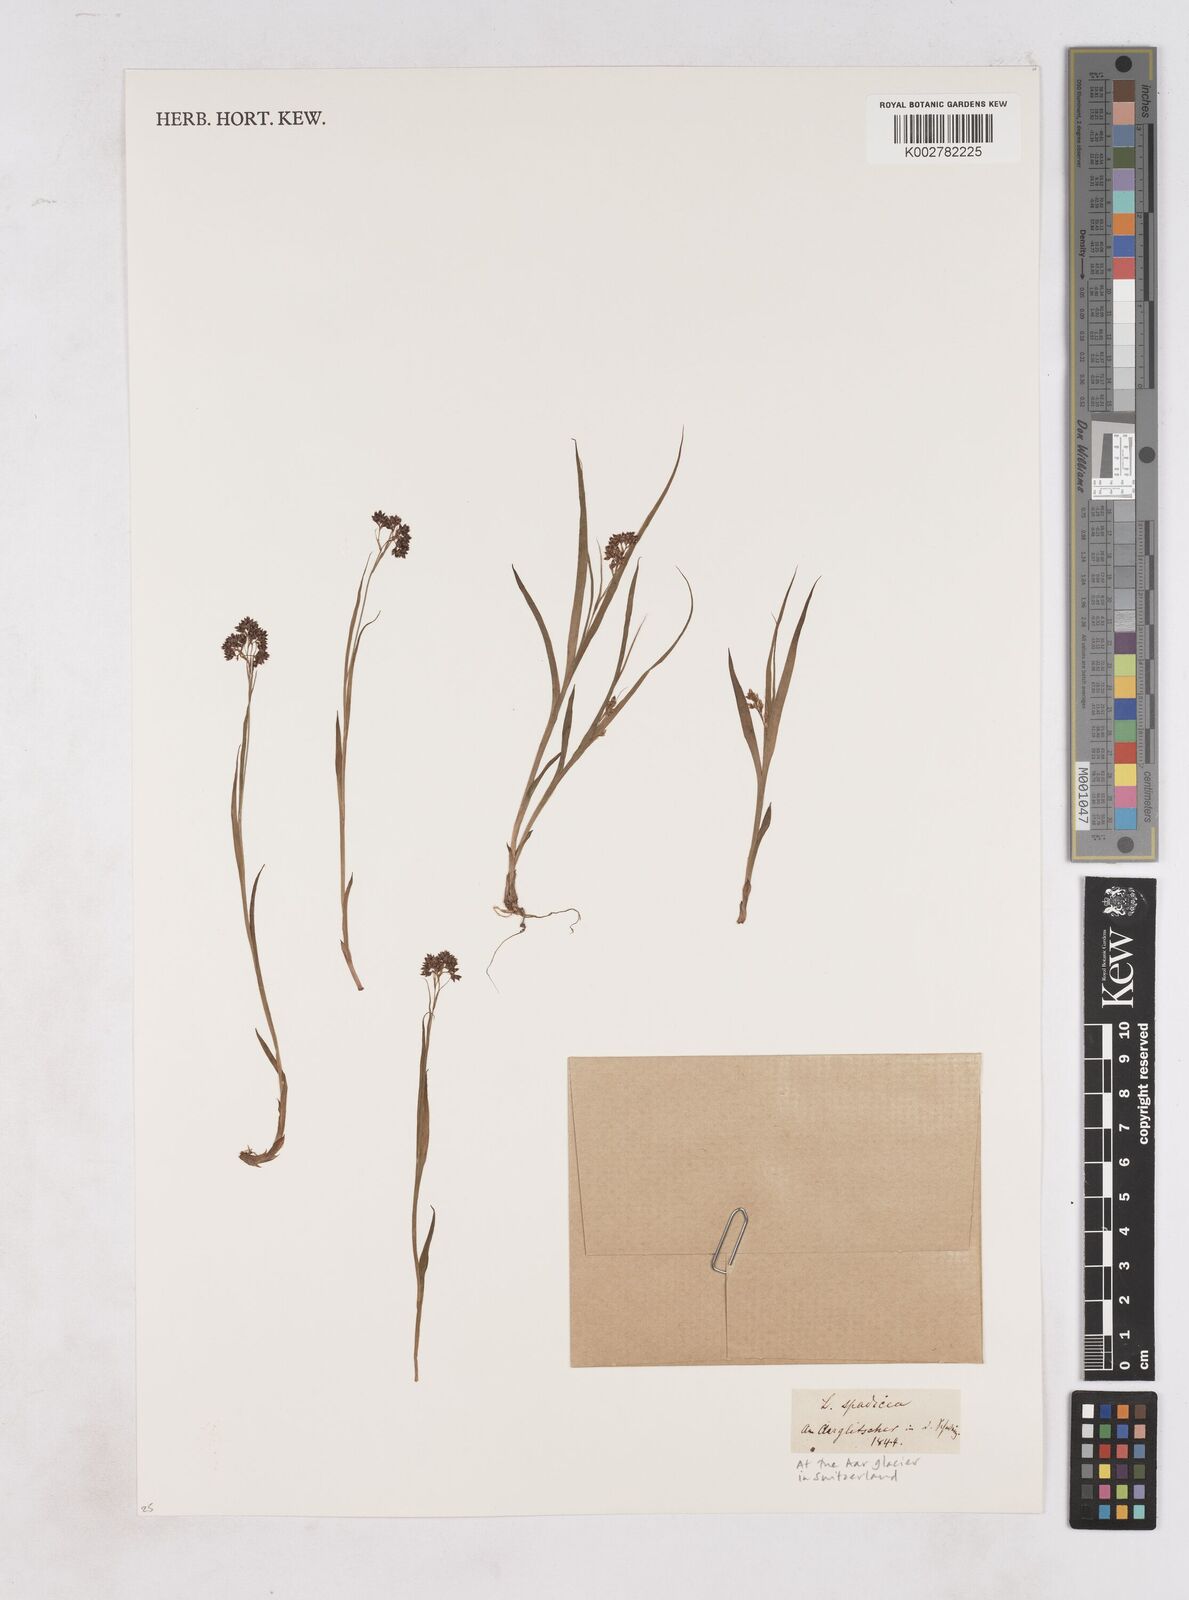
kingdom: Plantae
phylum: Tracheophyta
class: Liliopsida
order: Poales
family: Juncaceae
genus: Luzula
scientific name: Luzula alpinopilosa
